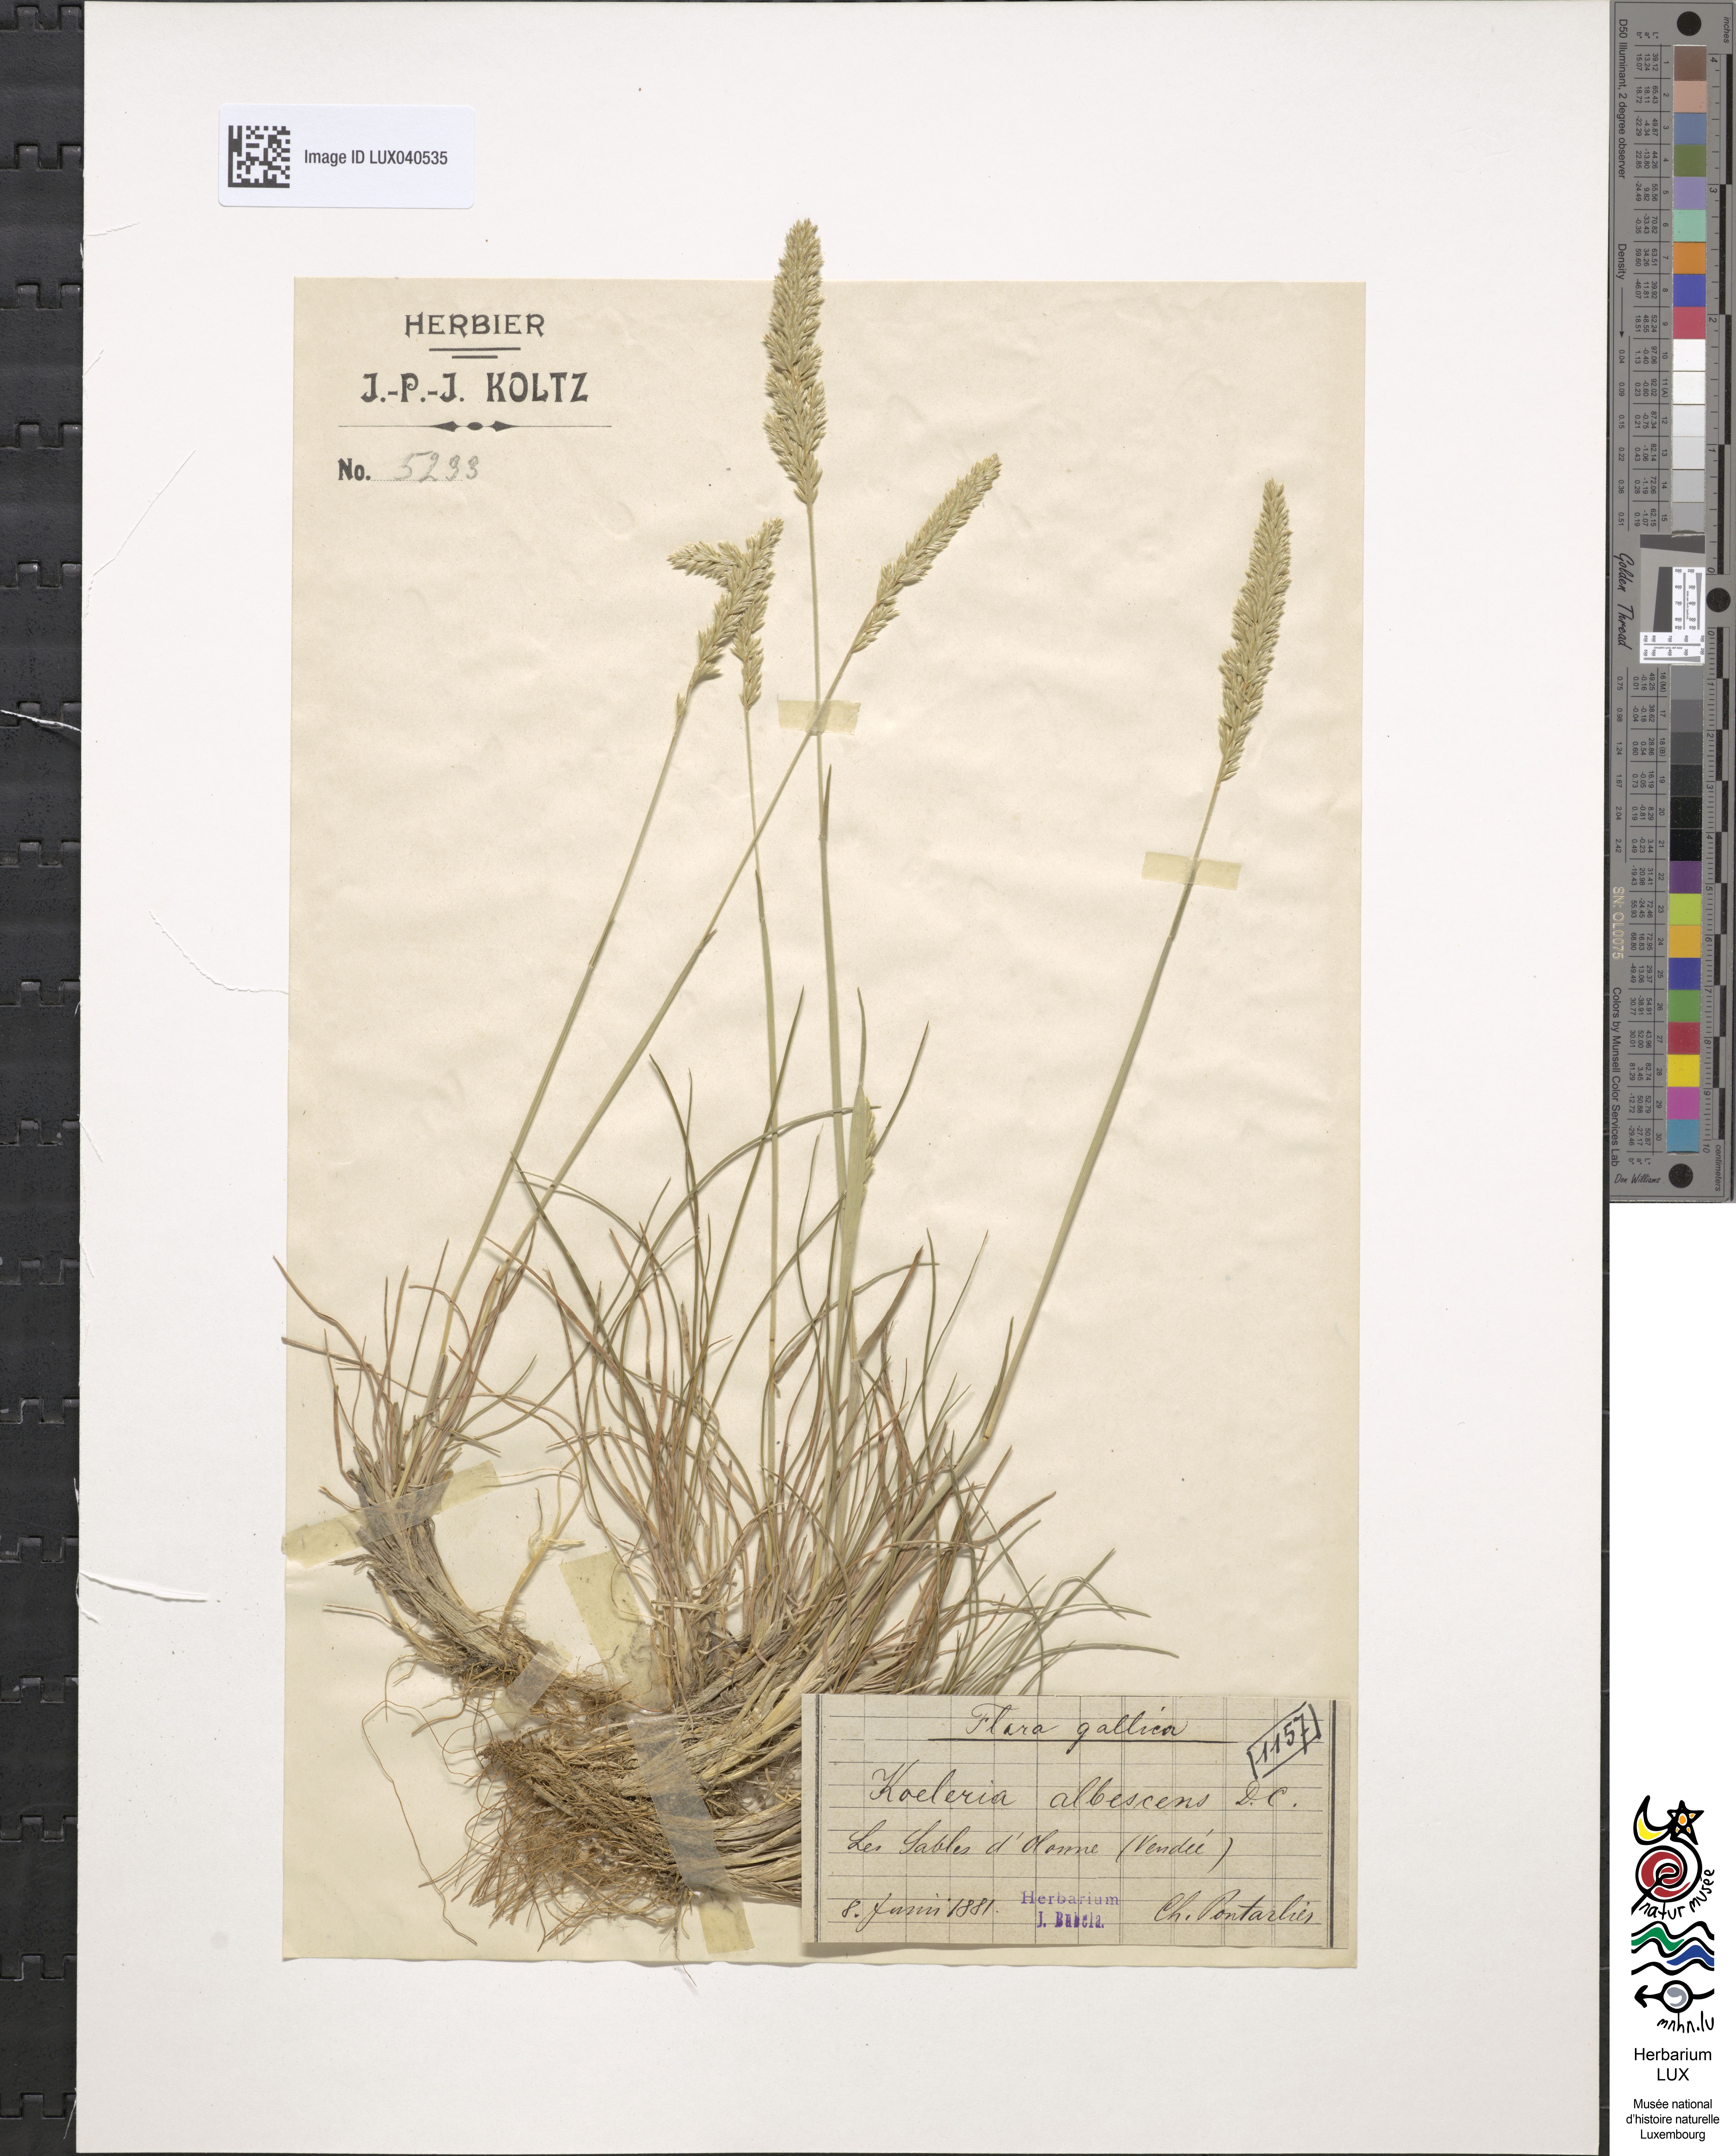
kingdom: Plantae
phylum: Tracheophyta
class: Liliopsida
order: Poales
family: Poaceae
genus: Koeleria
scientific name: Koeleria pyramidata
